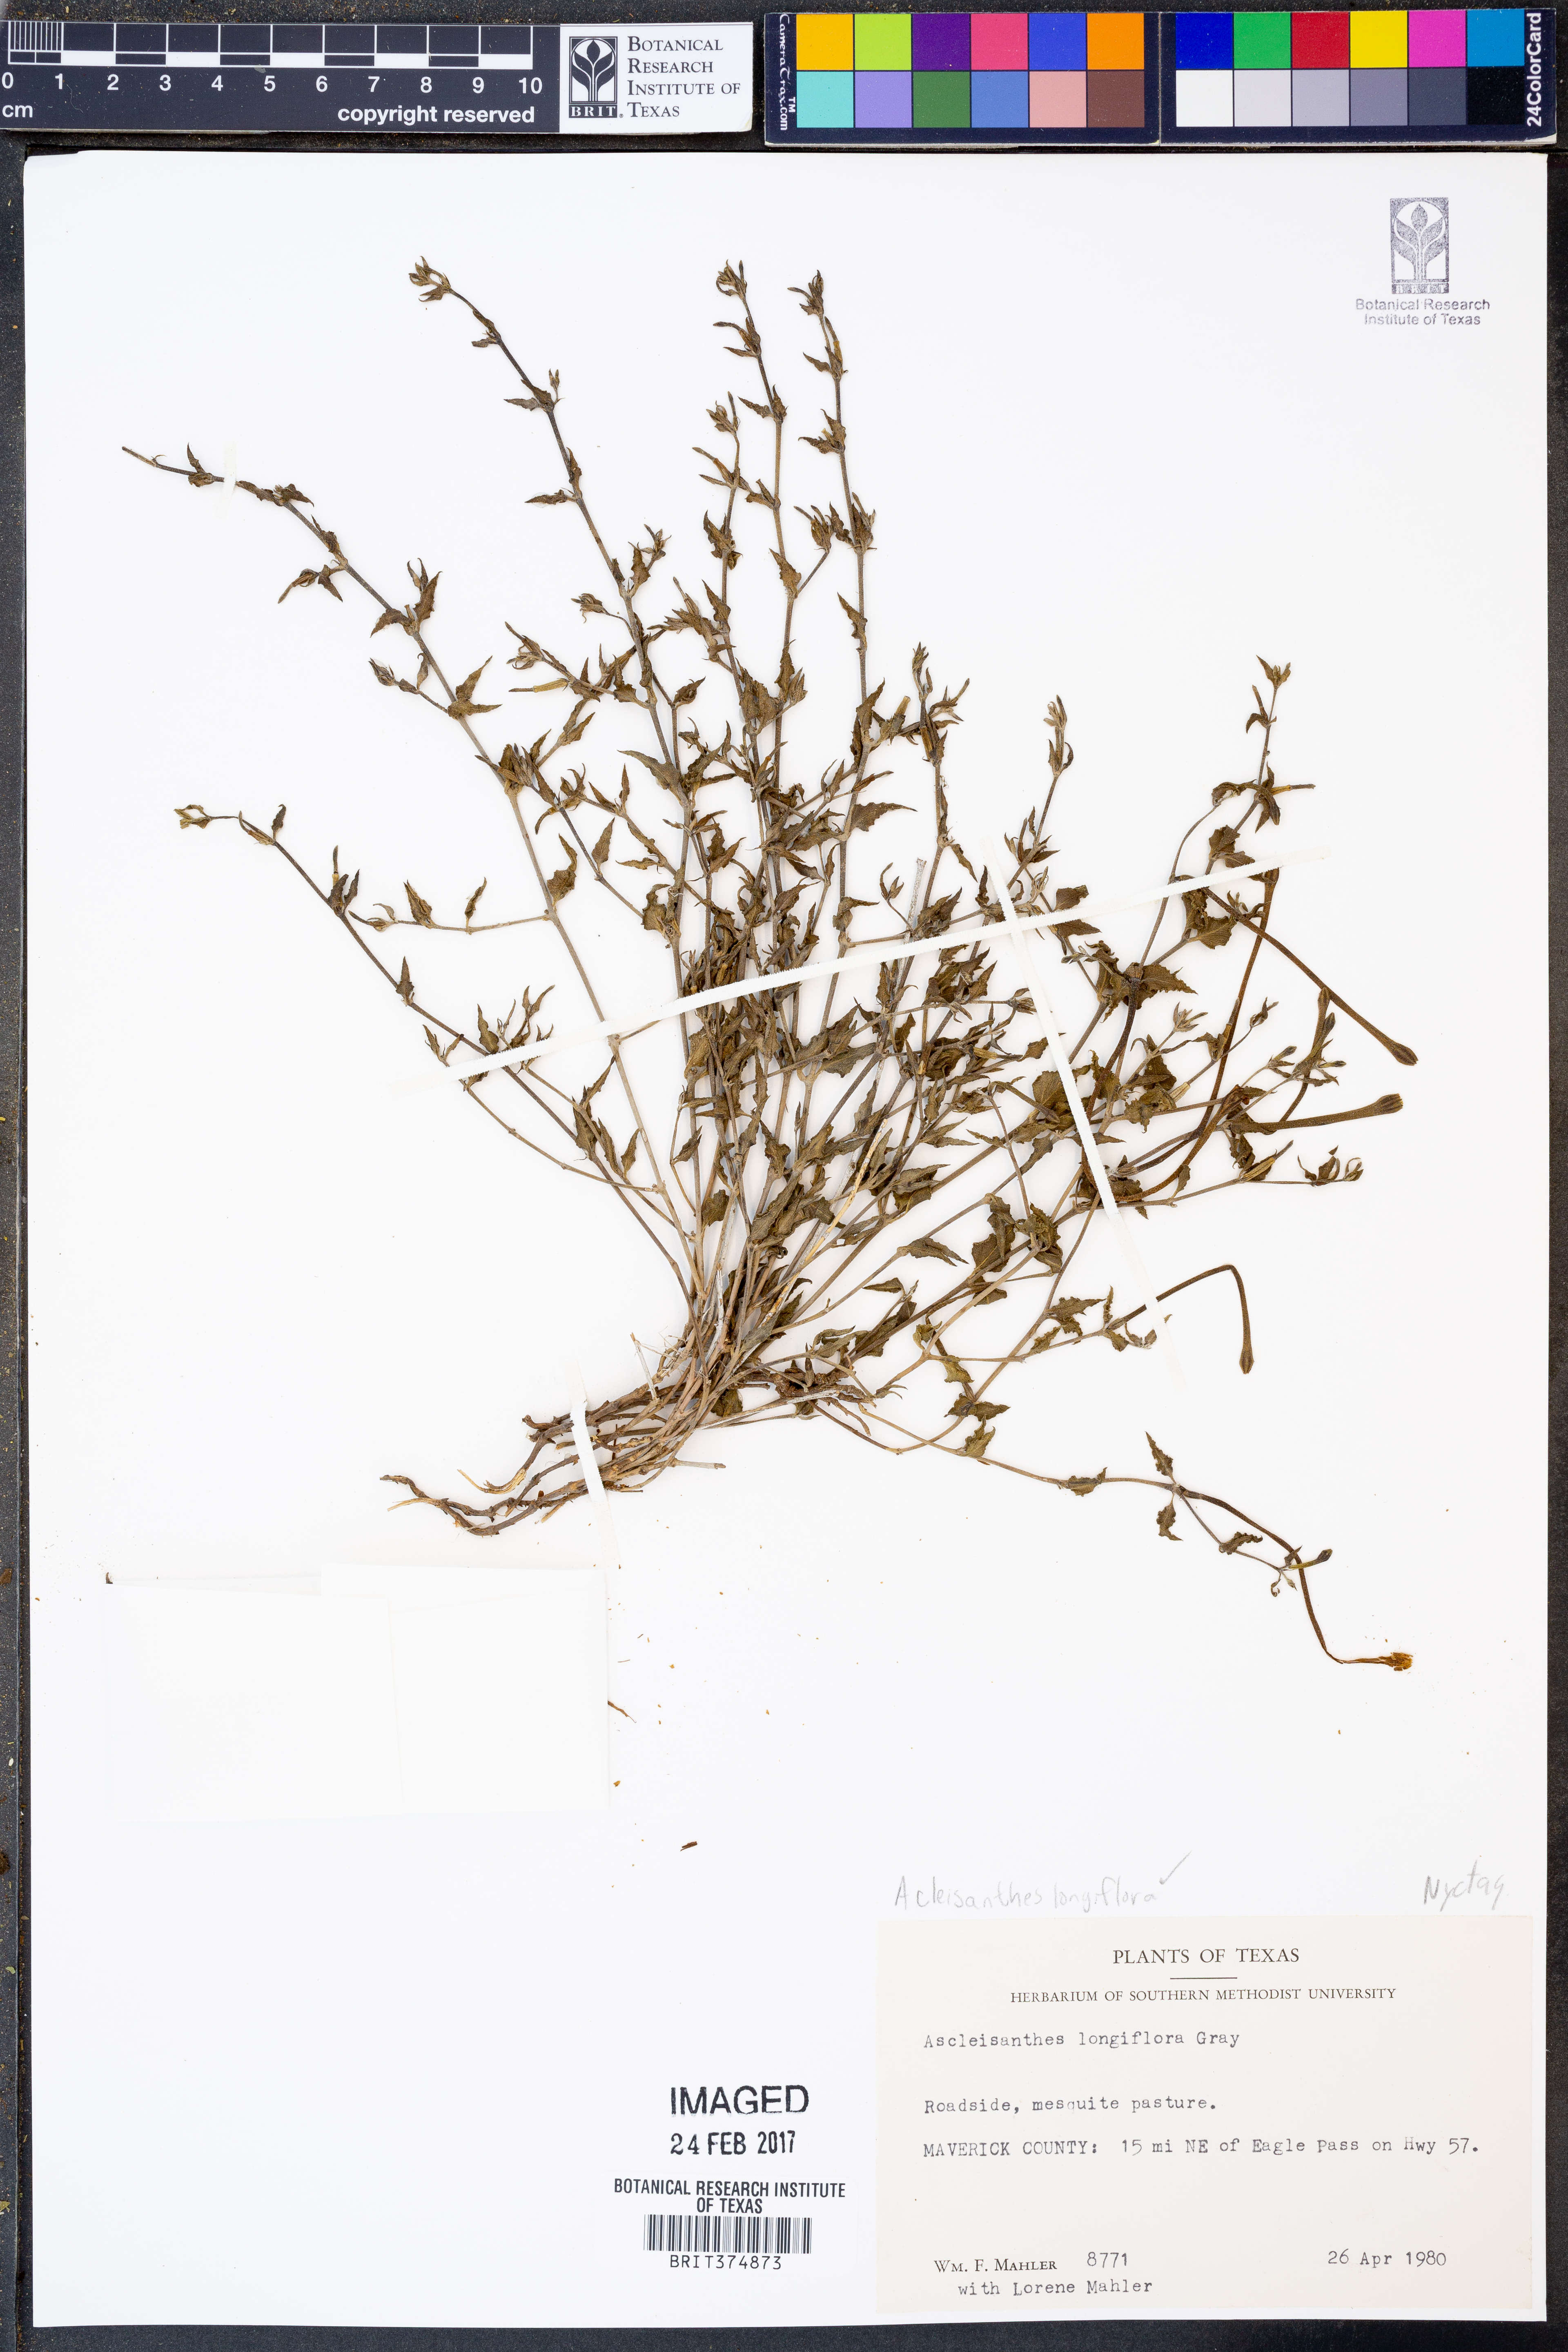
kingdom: Plantae
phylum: Tracheophyta
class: Magnoliopsida
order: Caryophyllales
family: Nyctaginaceae
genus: Acleisanthes
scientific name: Acleisanthes longiflora
